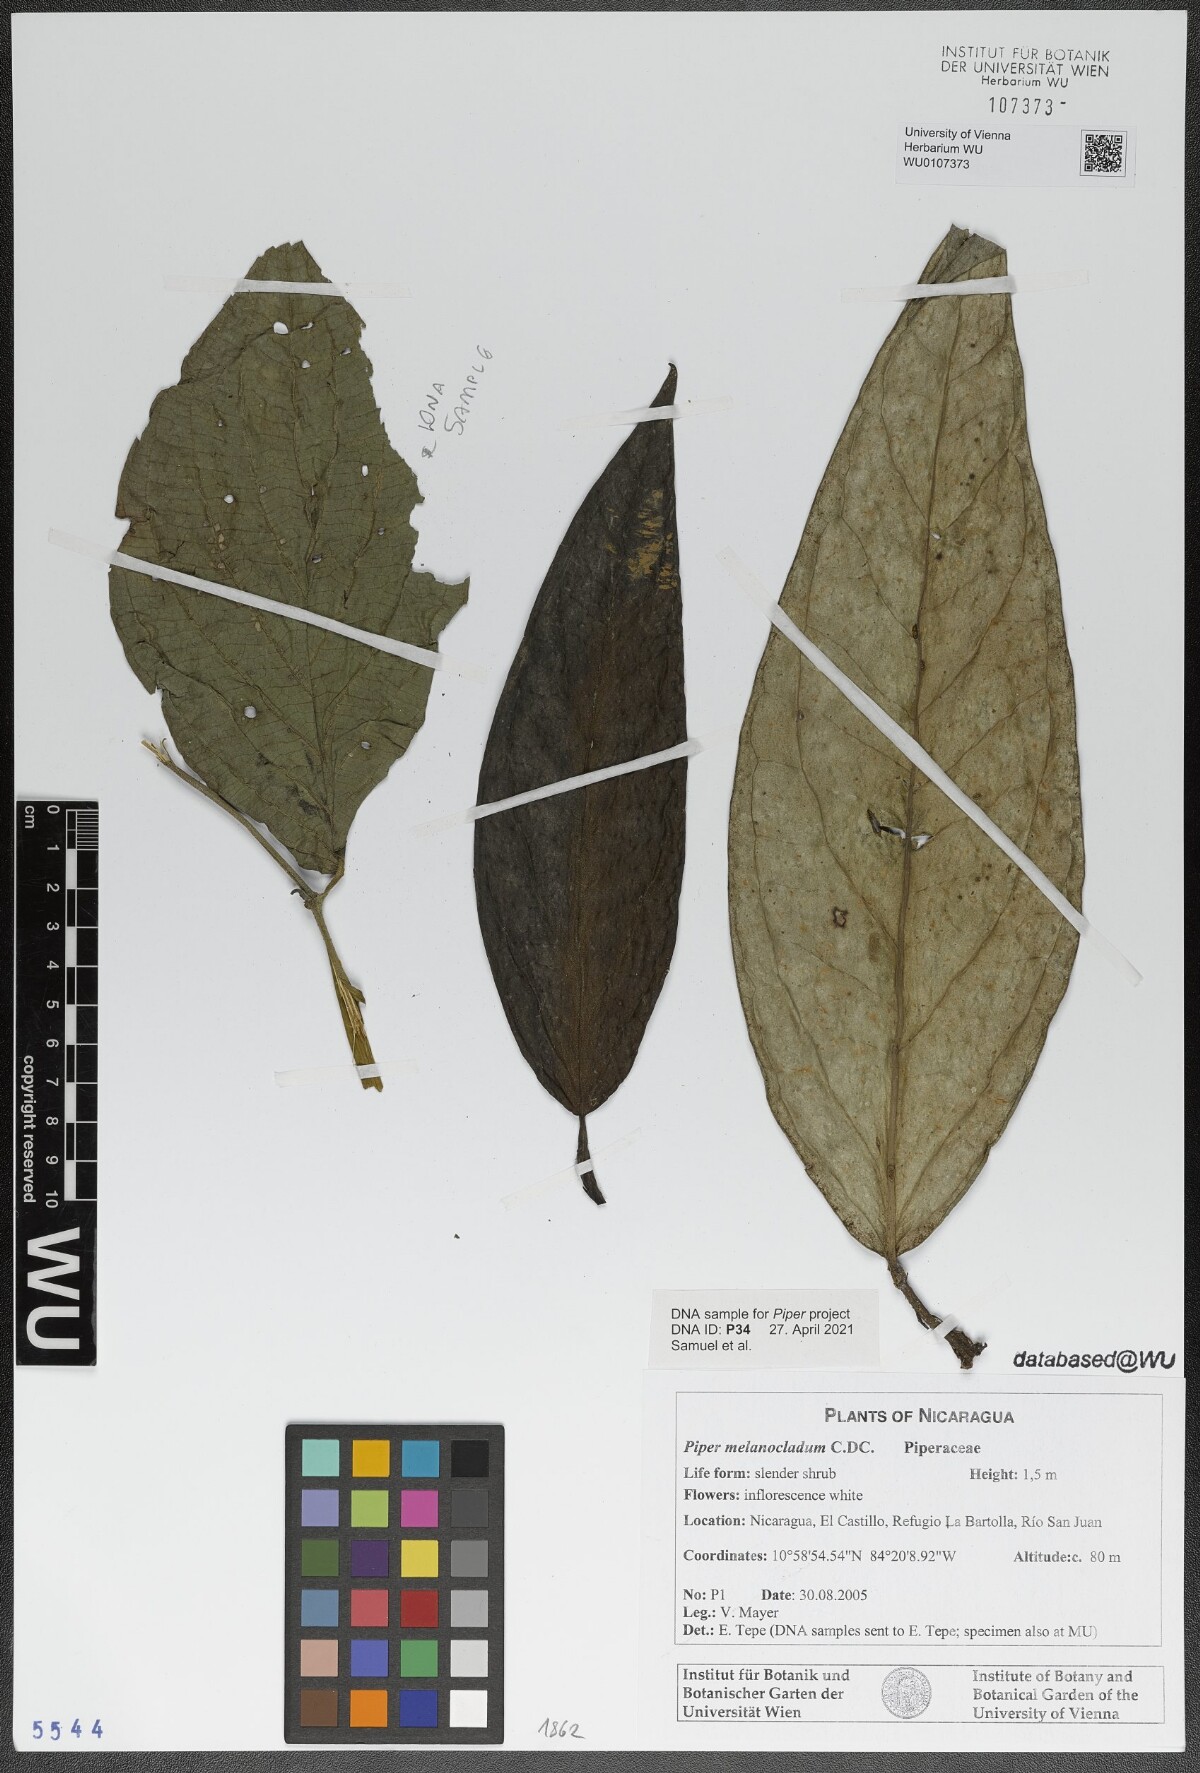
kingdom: Plantae
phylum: Tracheophyta
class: Magnoliopsida
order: Piperales
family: Piperaceae
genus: Piper
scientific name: Piper melanocladum
